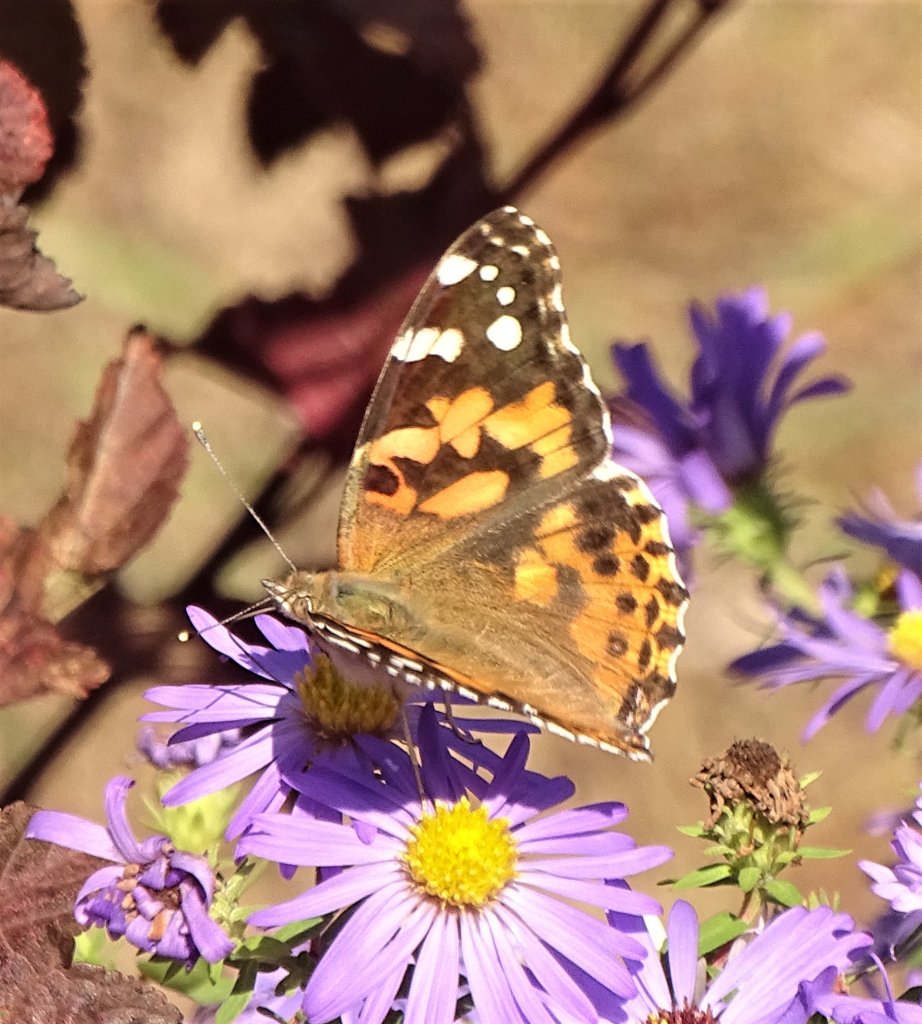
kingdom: Animalia
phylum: Arthropoda
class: Insecta
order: Lepidoptera
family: Nymphalidae
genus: Vanessa
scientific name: Vanessa cardui
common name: Painted Lady
